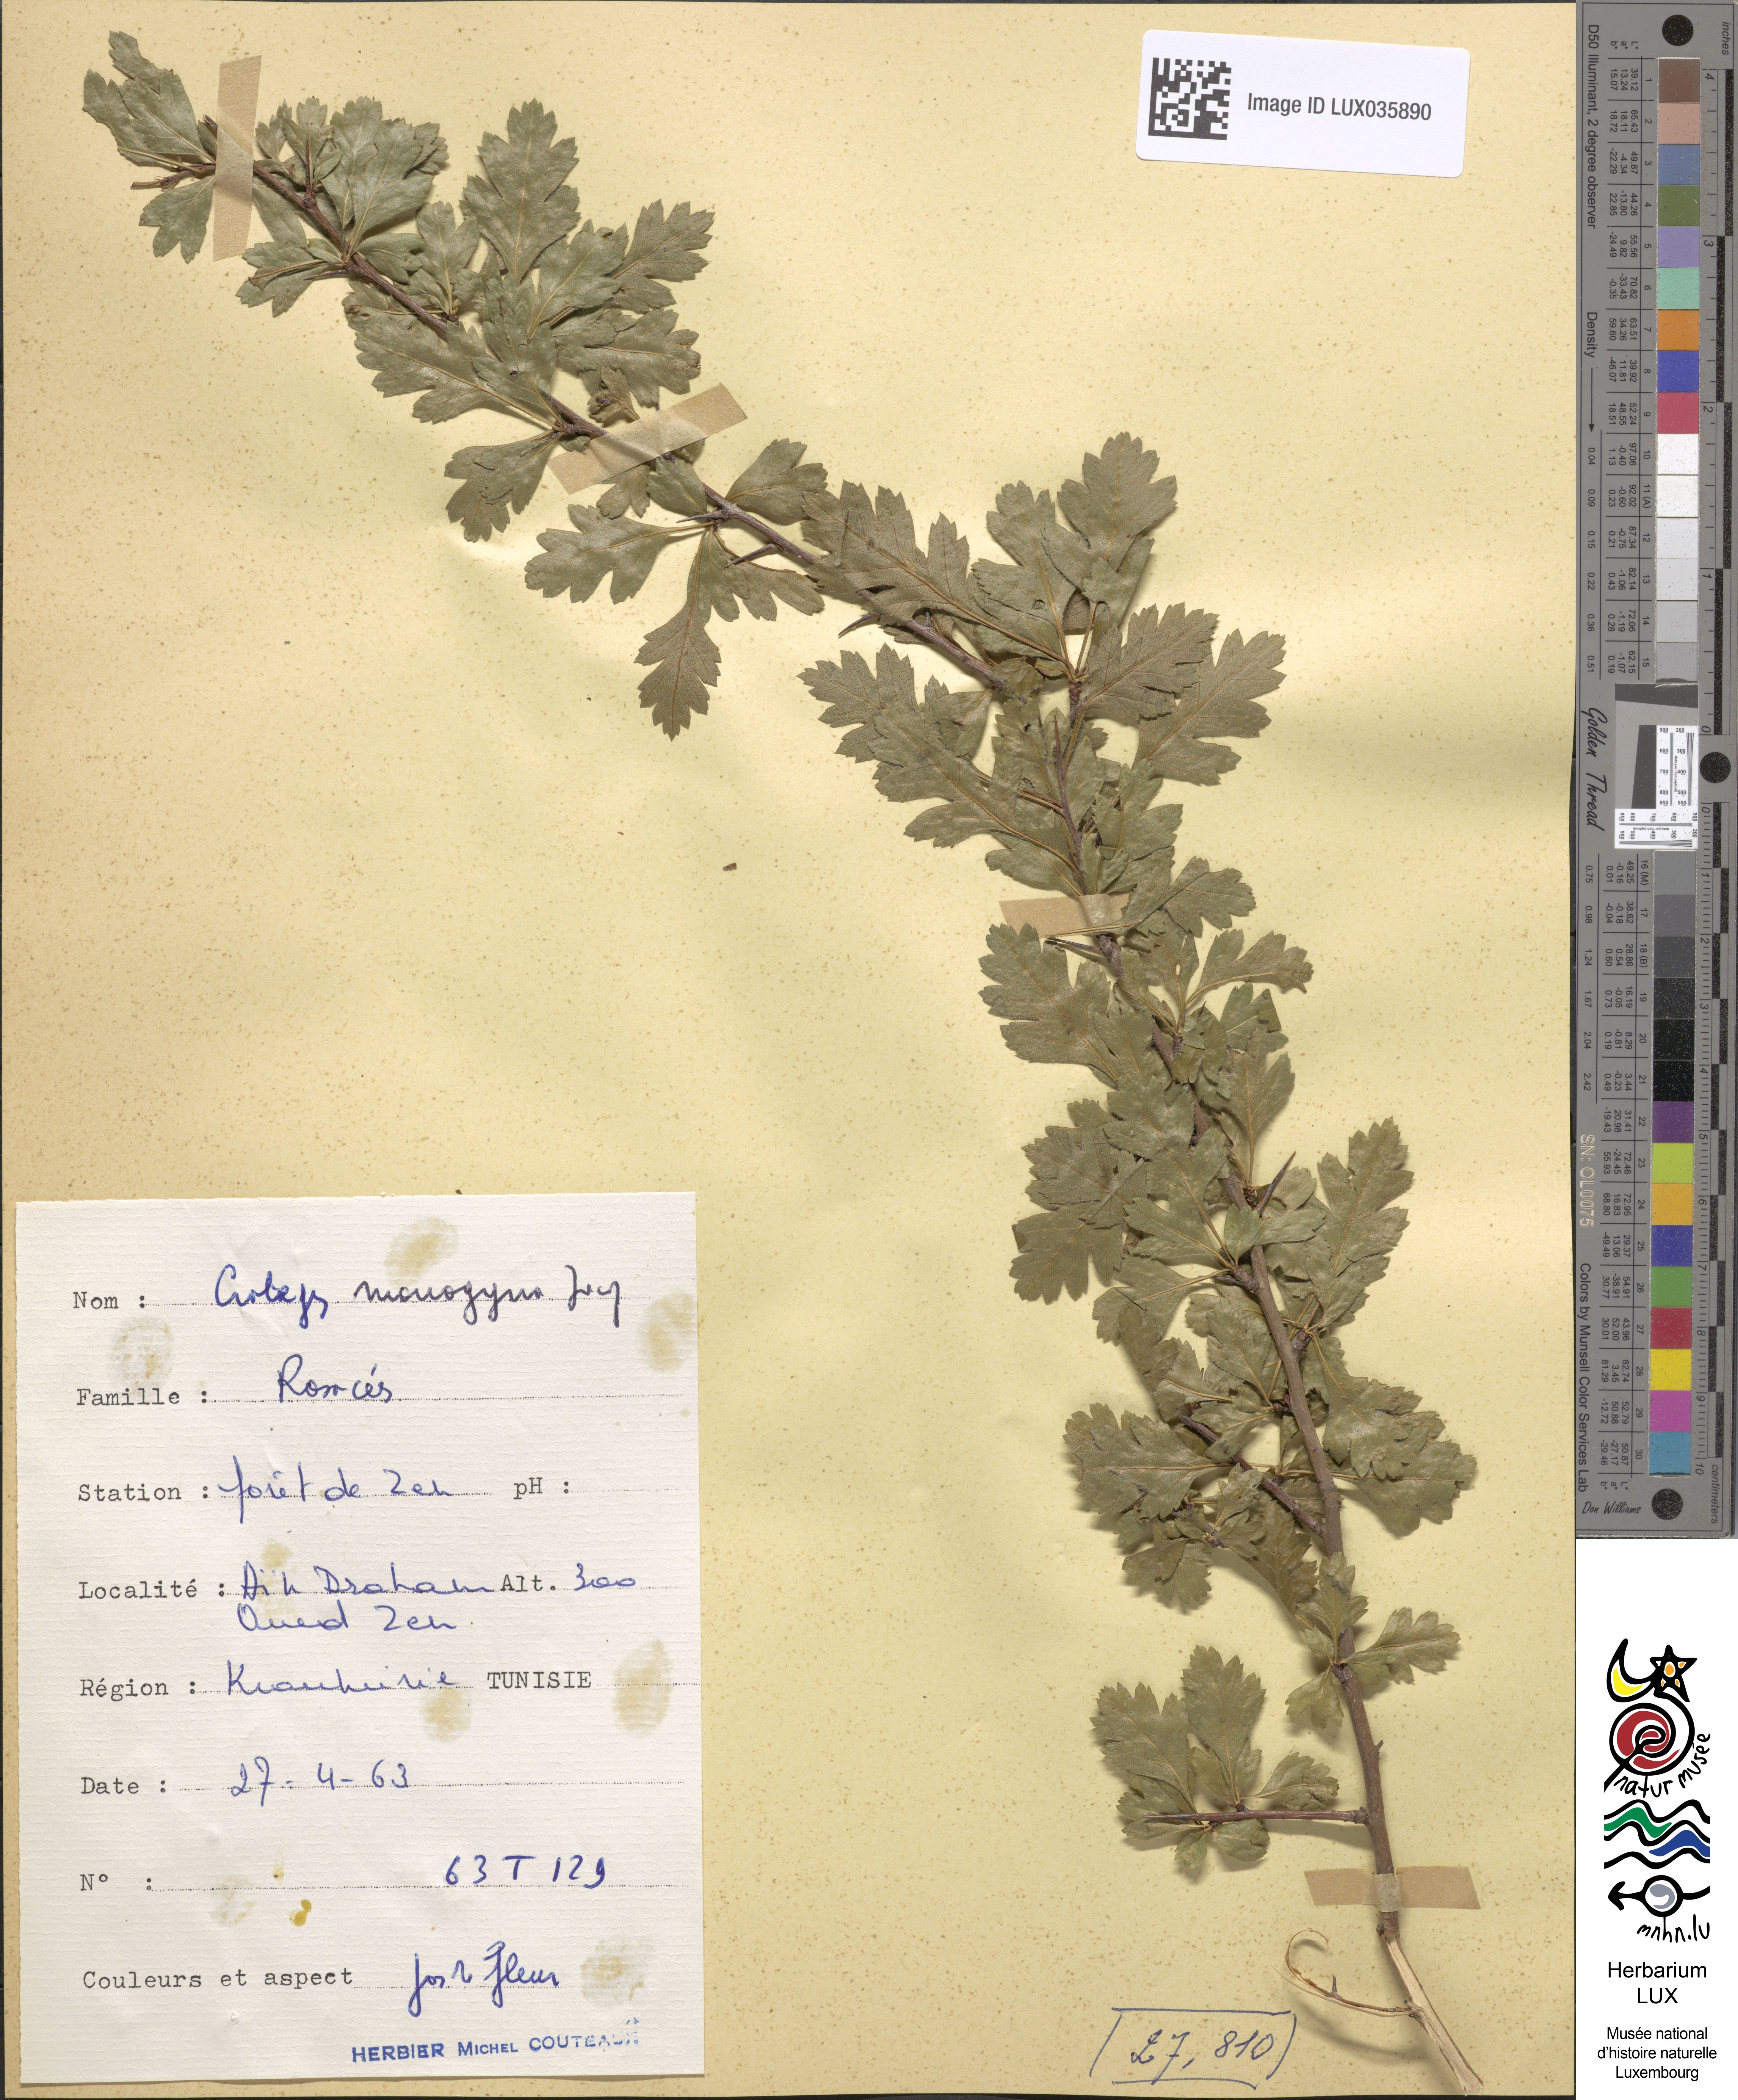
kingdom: Plantae
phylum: Tracheophyta
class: Magnoliopsida
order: Rosales
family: Rosaceae
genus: Crataegus
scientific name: Crataegus monogyna
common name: Hawthorn
